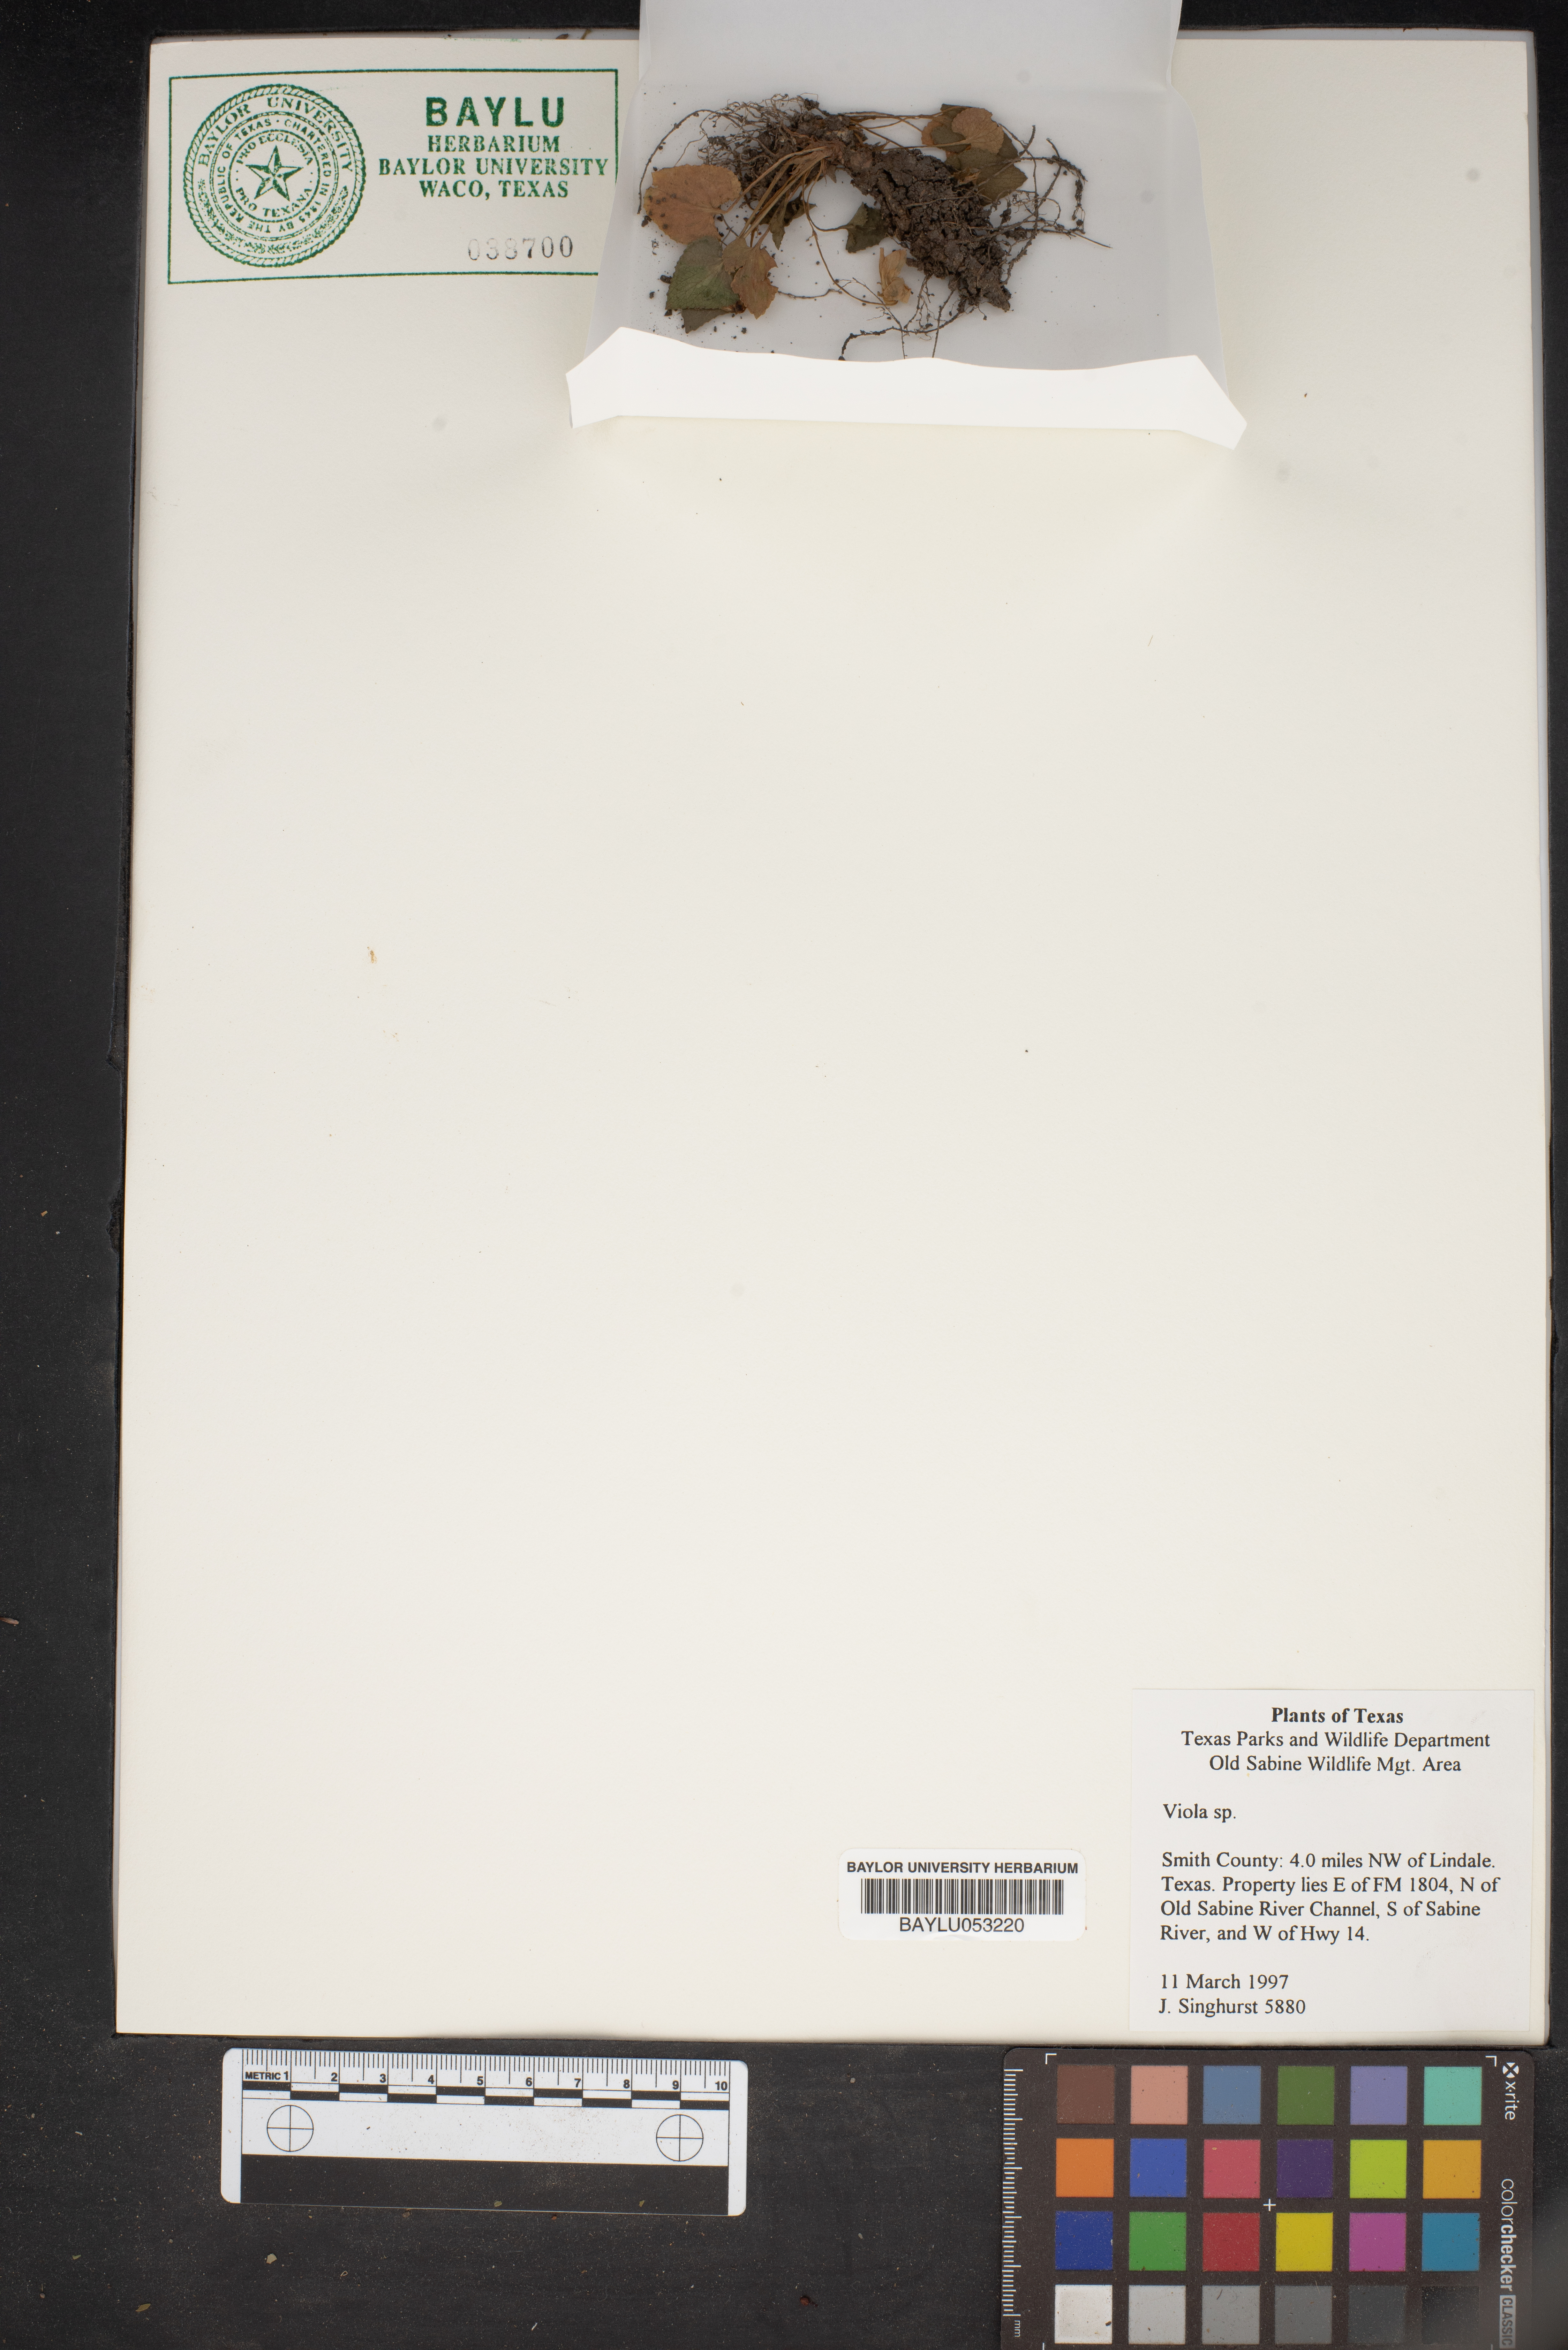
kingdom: Plantae
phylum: Tracheophyta
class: Magnoliopsida
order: Malpighiales
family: Violaceae
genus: Viola
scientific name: Viola
